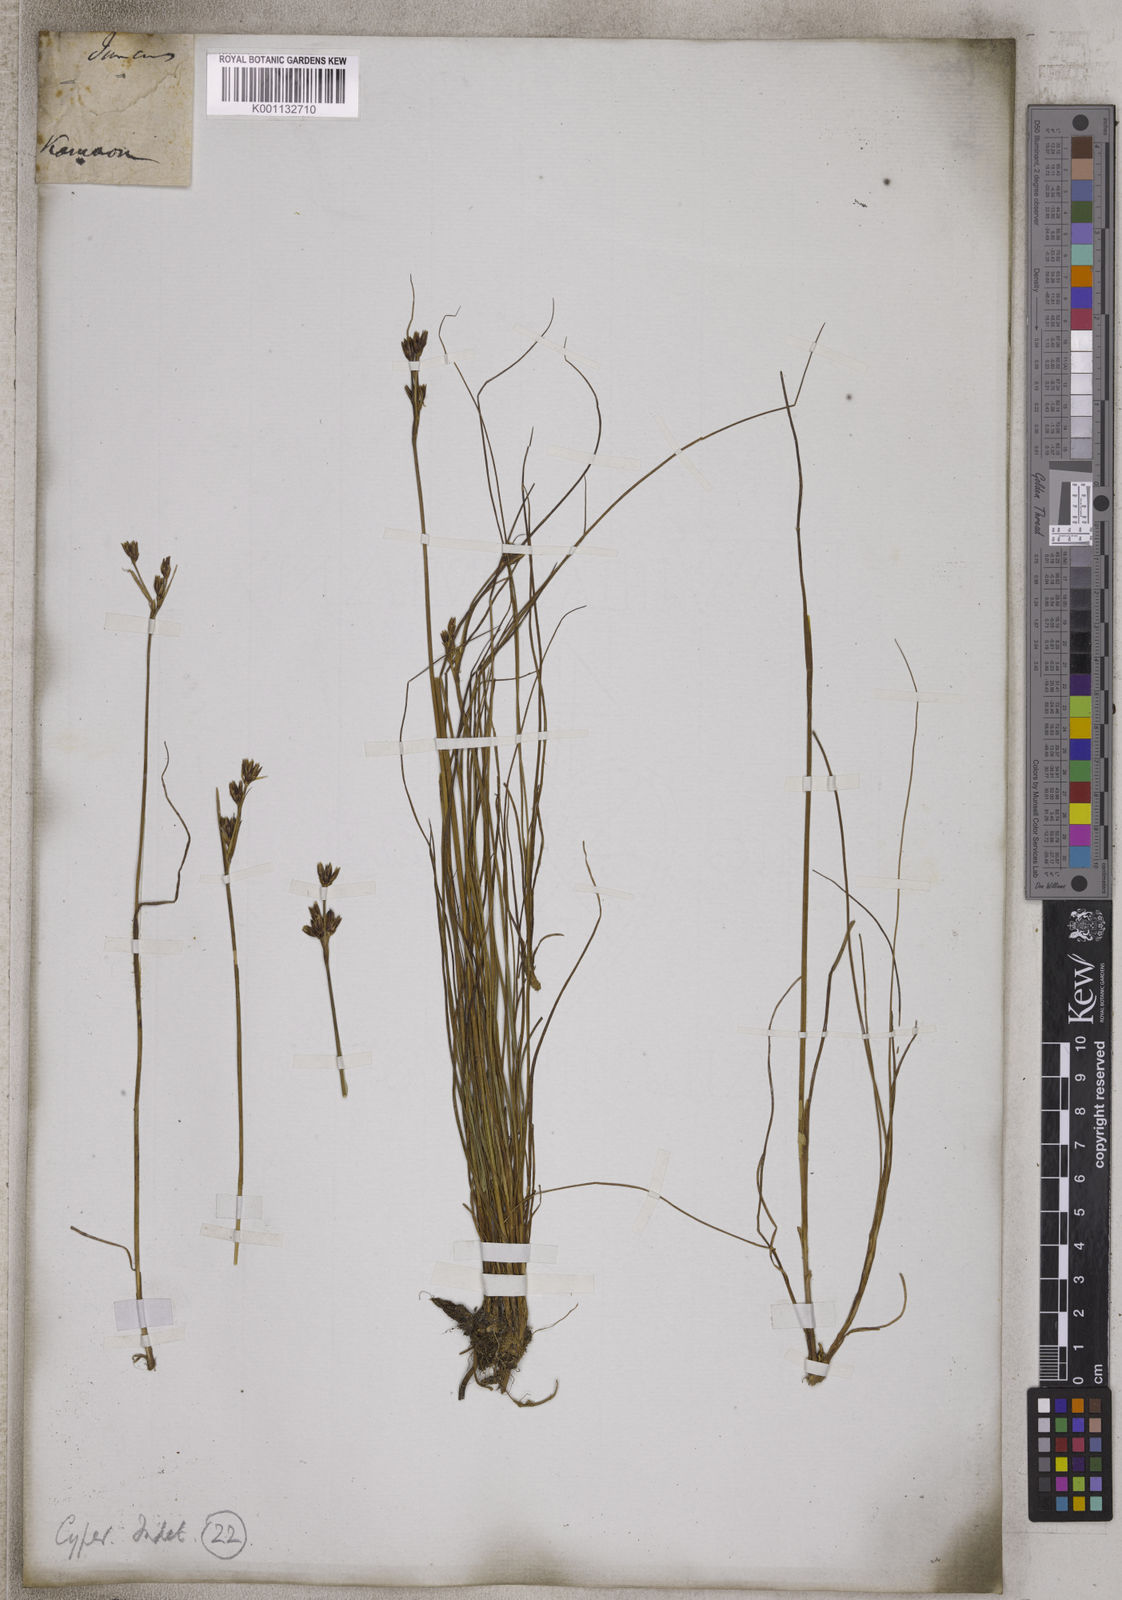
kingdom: Plantae
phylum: Tracheophyta
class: Liliopsida
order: Poales
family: Cyperaceae
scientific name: Cyperaceae
